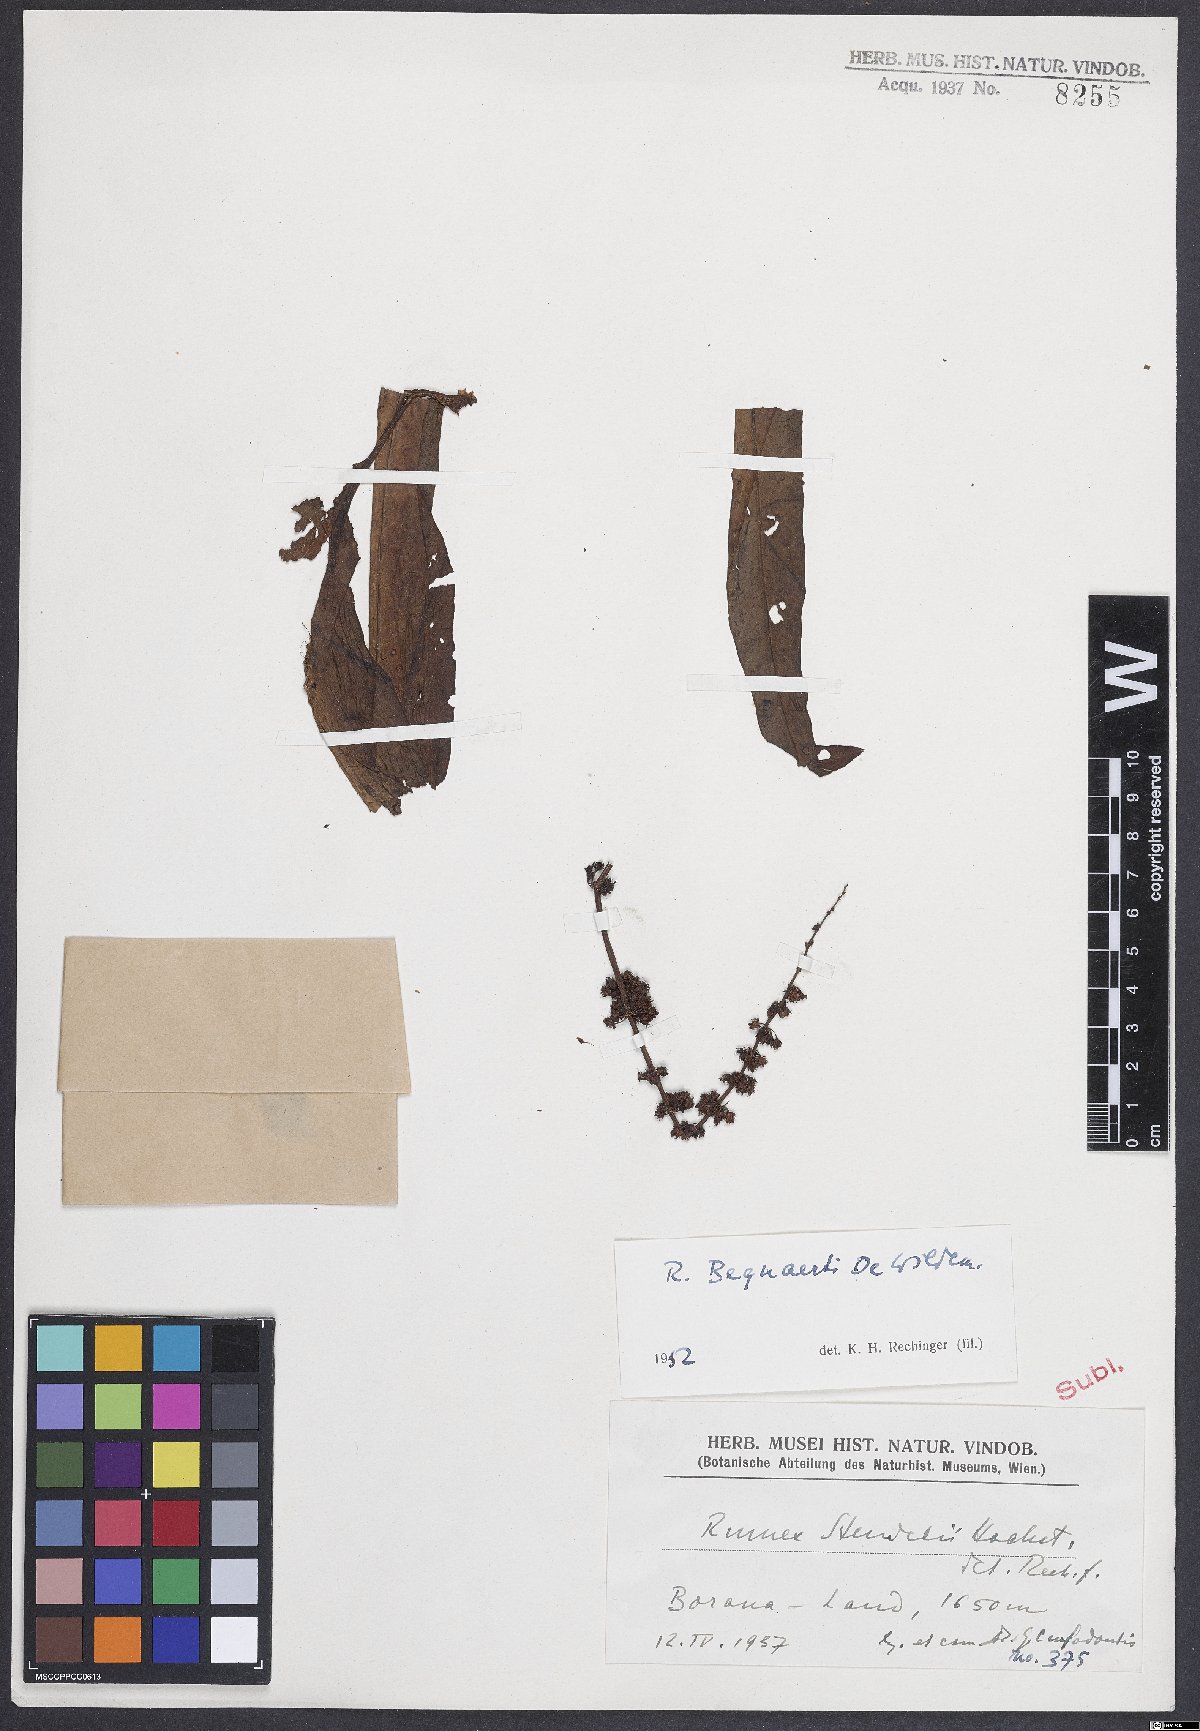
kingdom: Plantae
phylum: Tracheophyta
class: Magnoliopsida
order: Caryophyllales
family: Polygonaceae
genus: Rumex
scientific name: Rumex bequaertii
